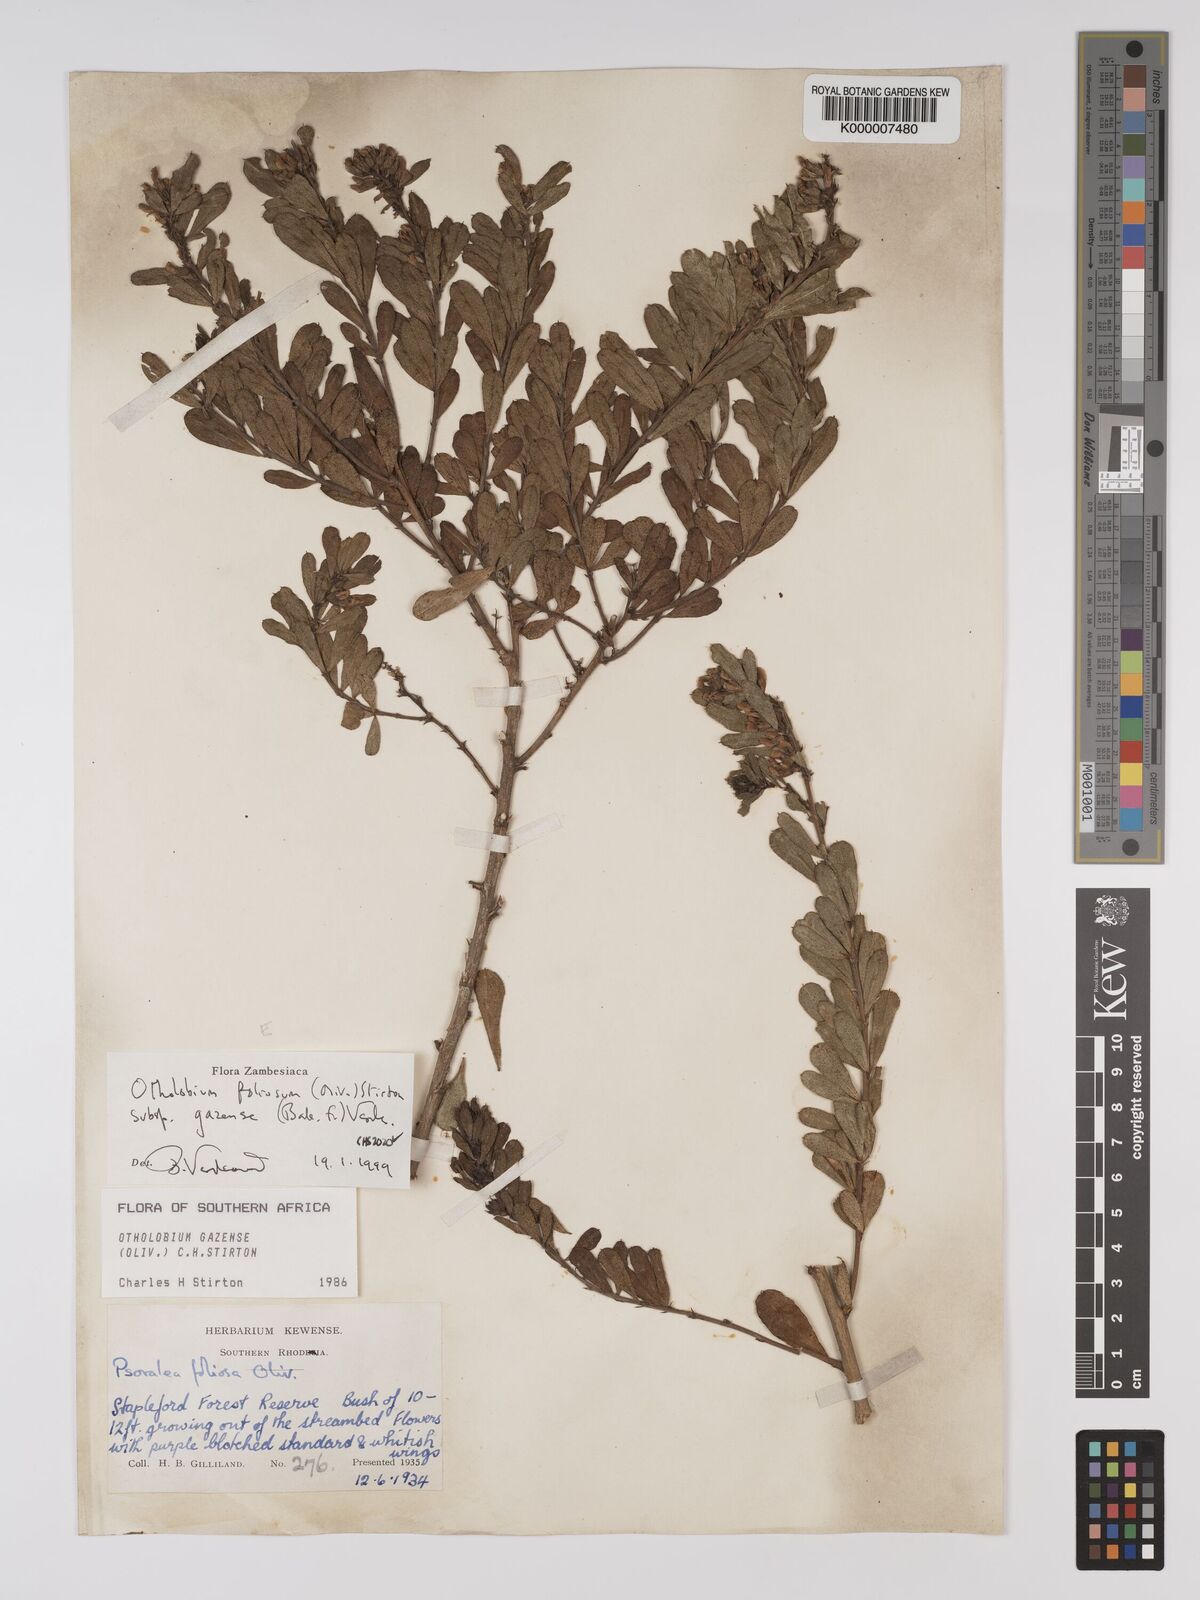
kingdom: Plantae
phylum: Tracheophyta
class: Magnoliopsida
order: Fabales
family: Fabaceae
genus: Psoralea
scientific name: Psoralea foliosa
